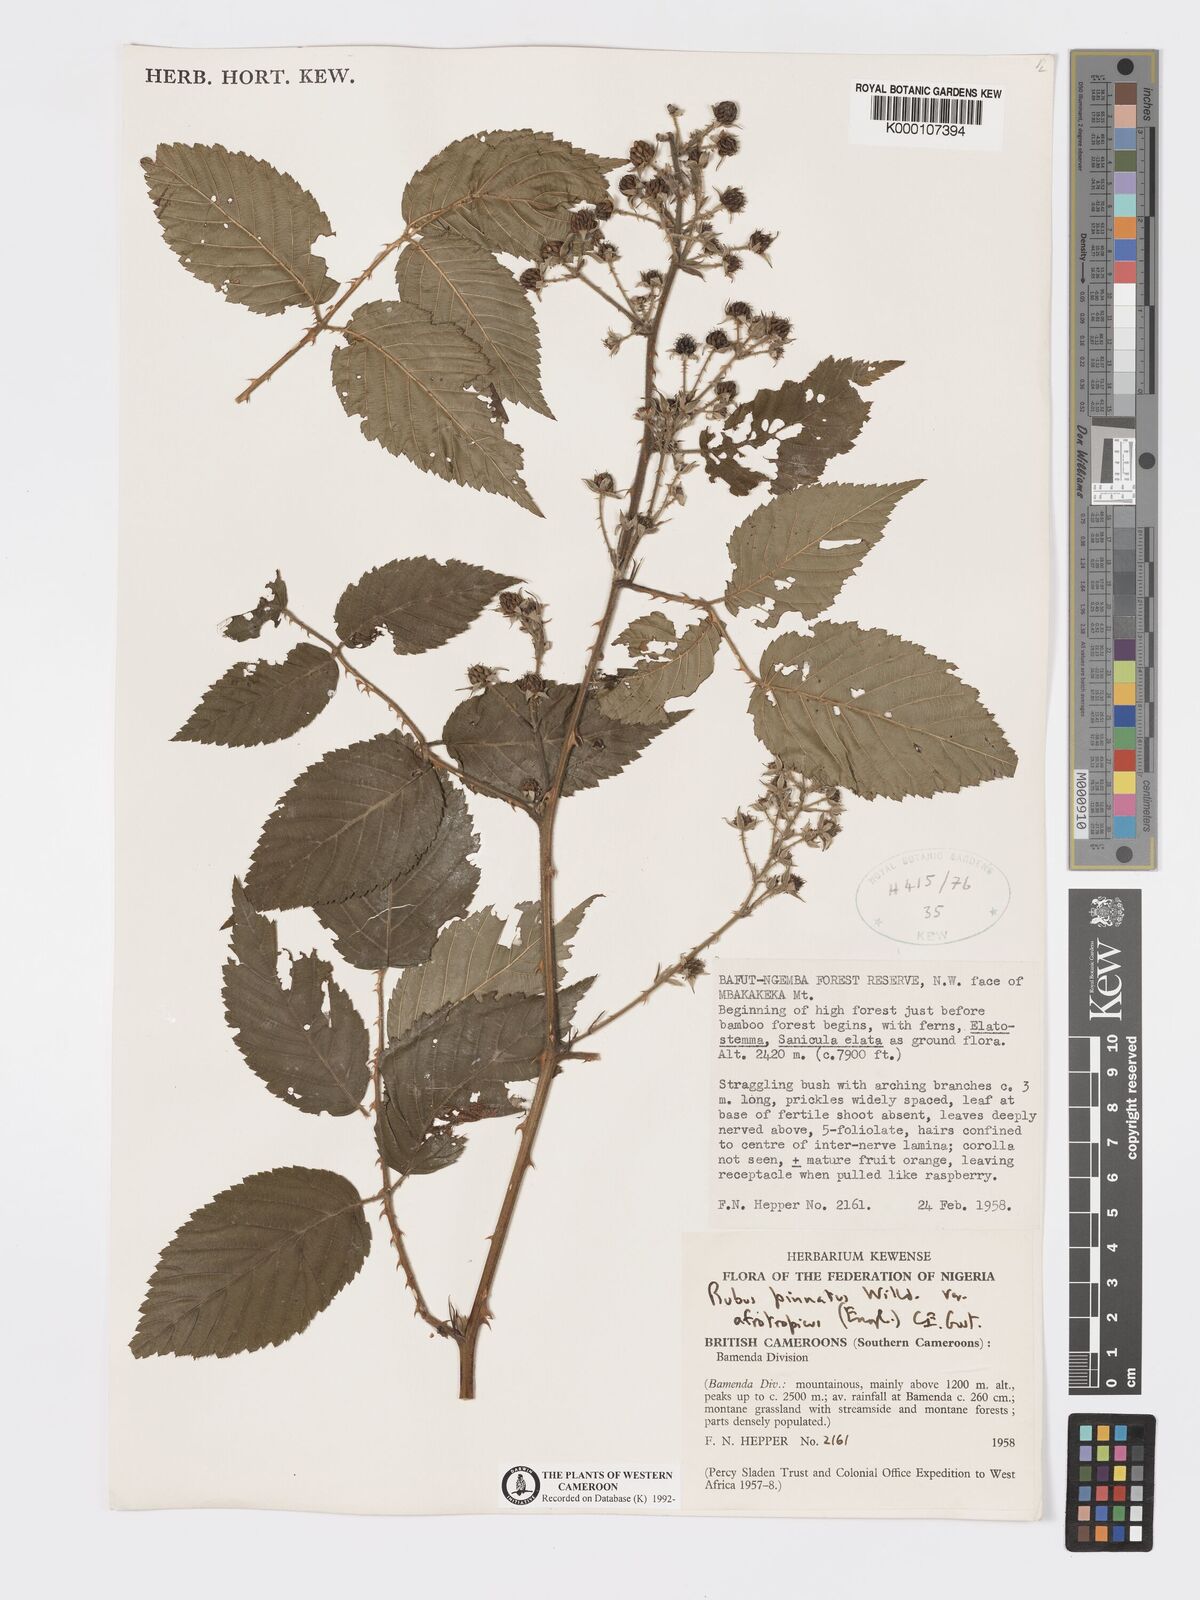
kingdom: Plantae
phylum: Tracheophyta
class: Magnoliopsida
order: Rosales
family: Rosaceae
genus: Rubus
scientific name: Rubus pinnatus
